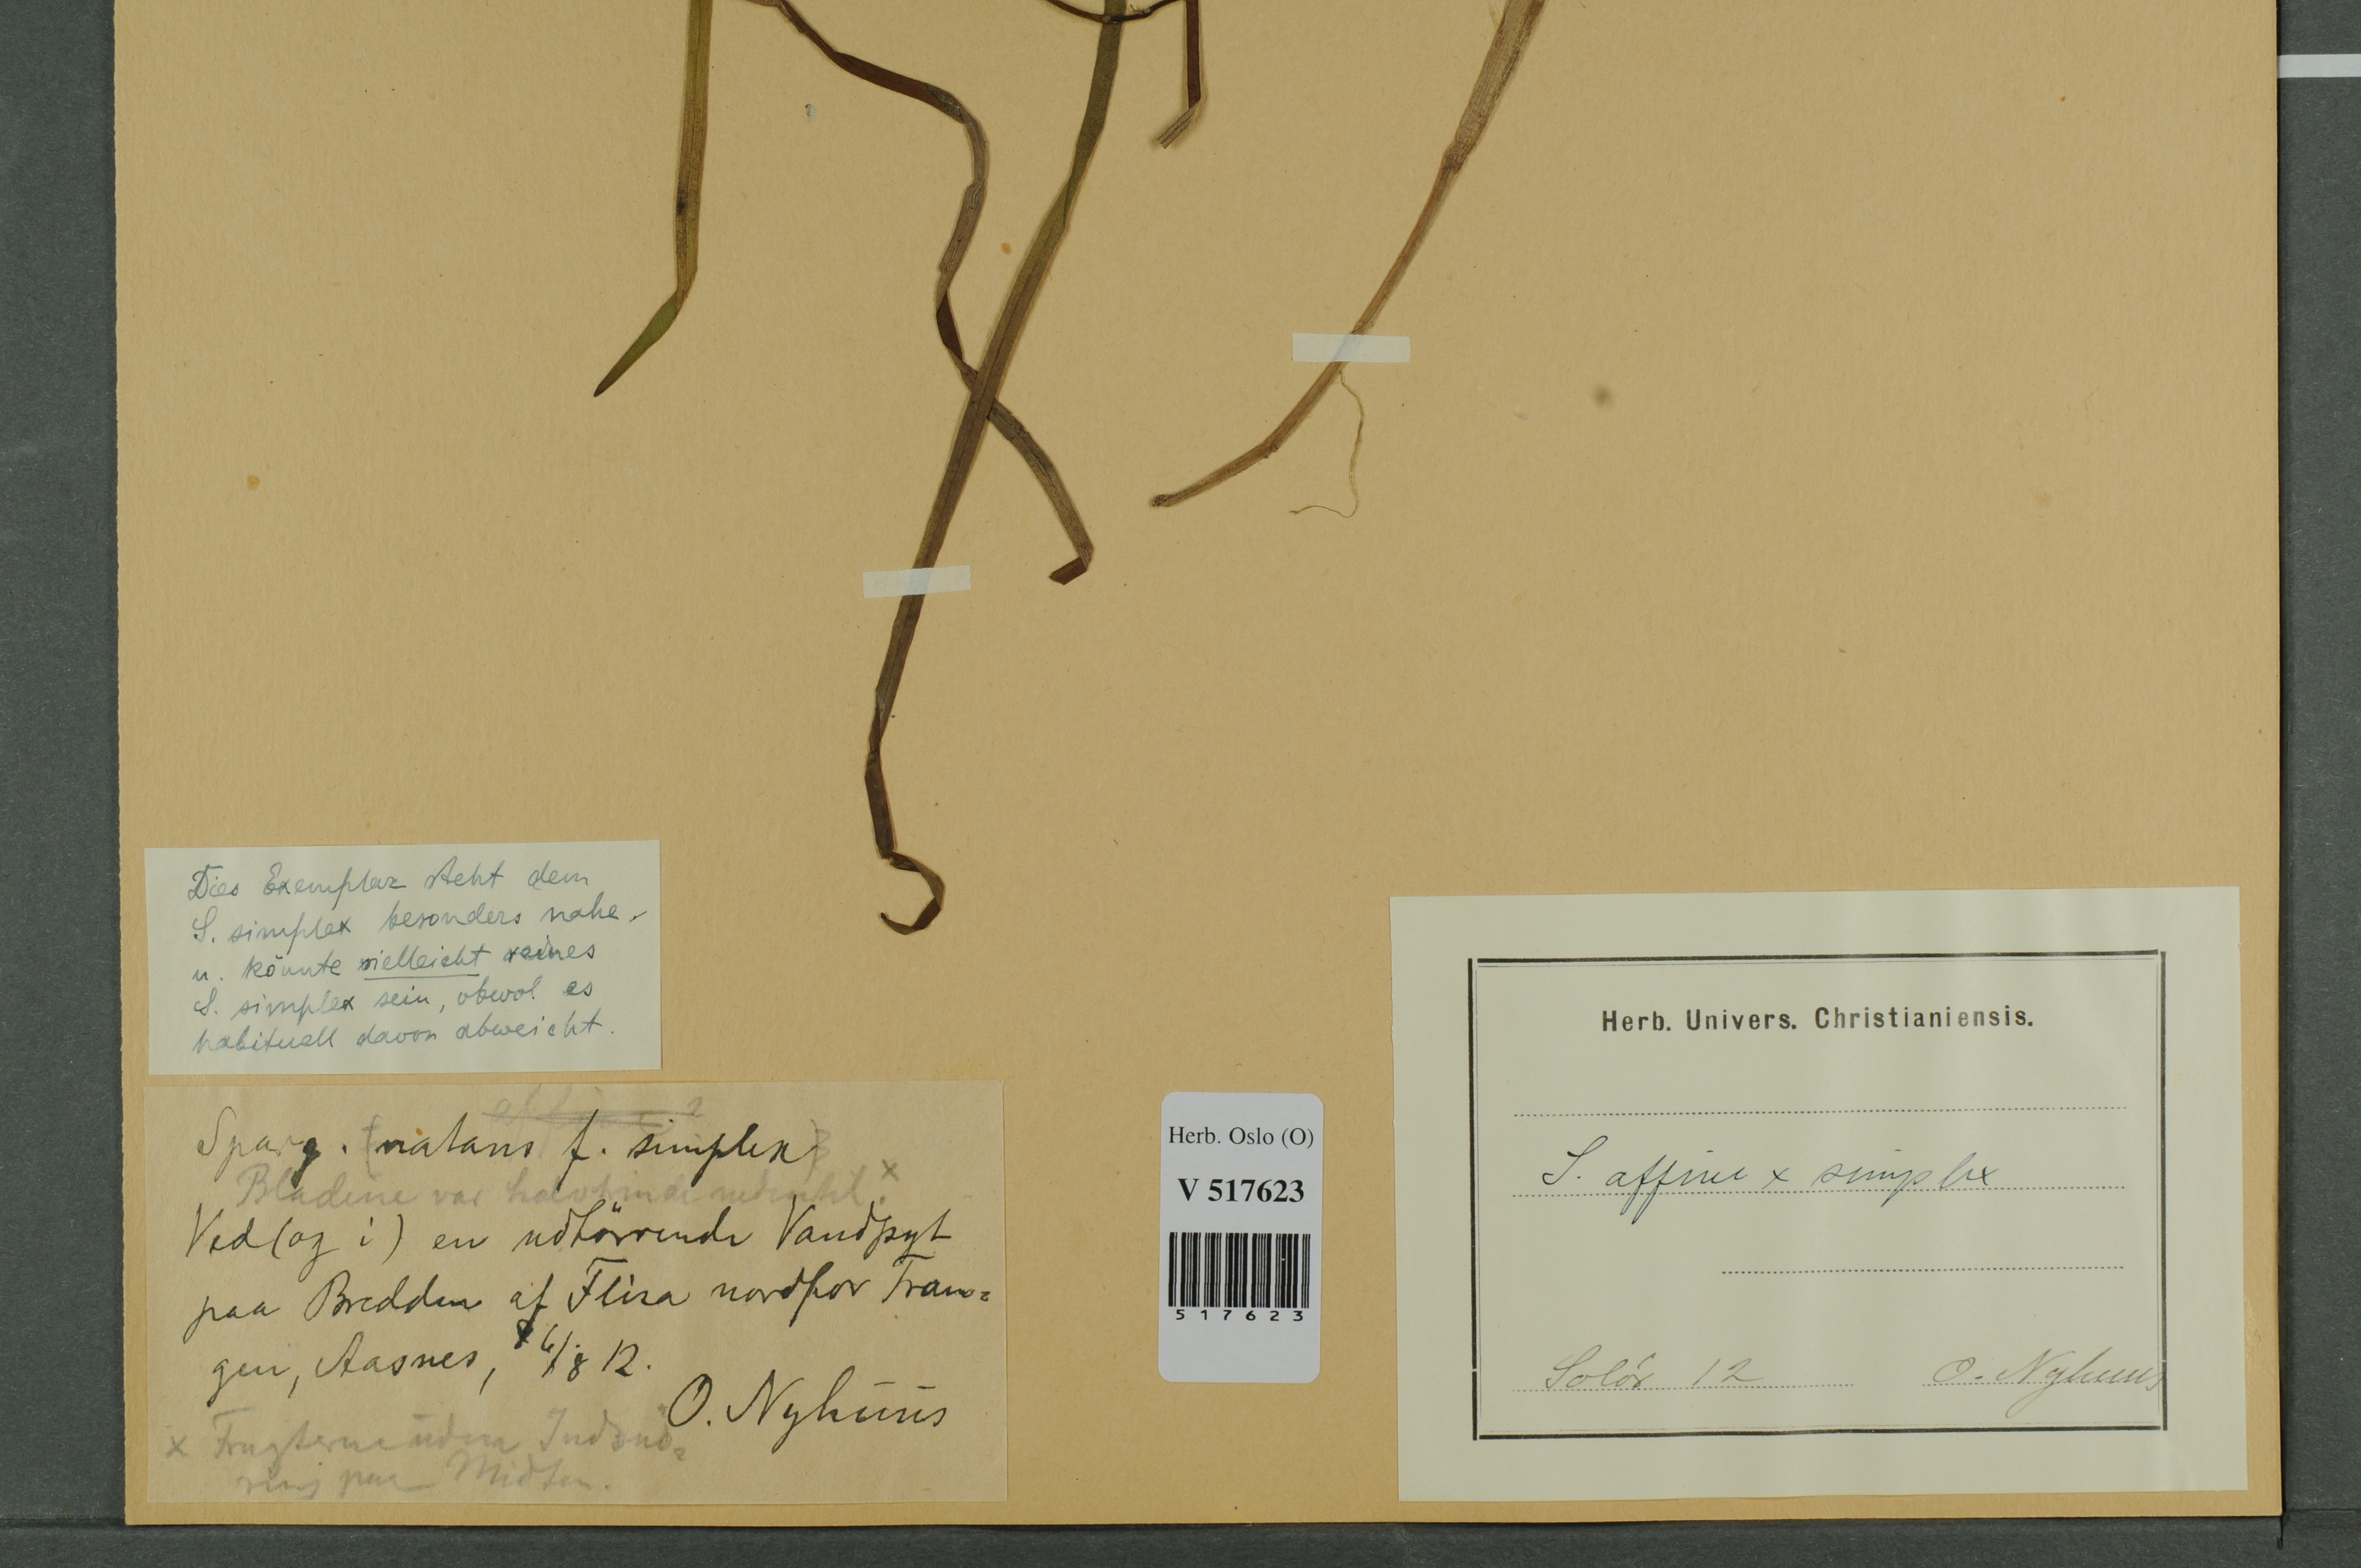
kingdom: Plantae
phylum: Tracheophyta
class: Liliopsida
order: Poales
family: Typhaceae
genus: Sparganium
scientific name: Sparganium
